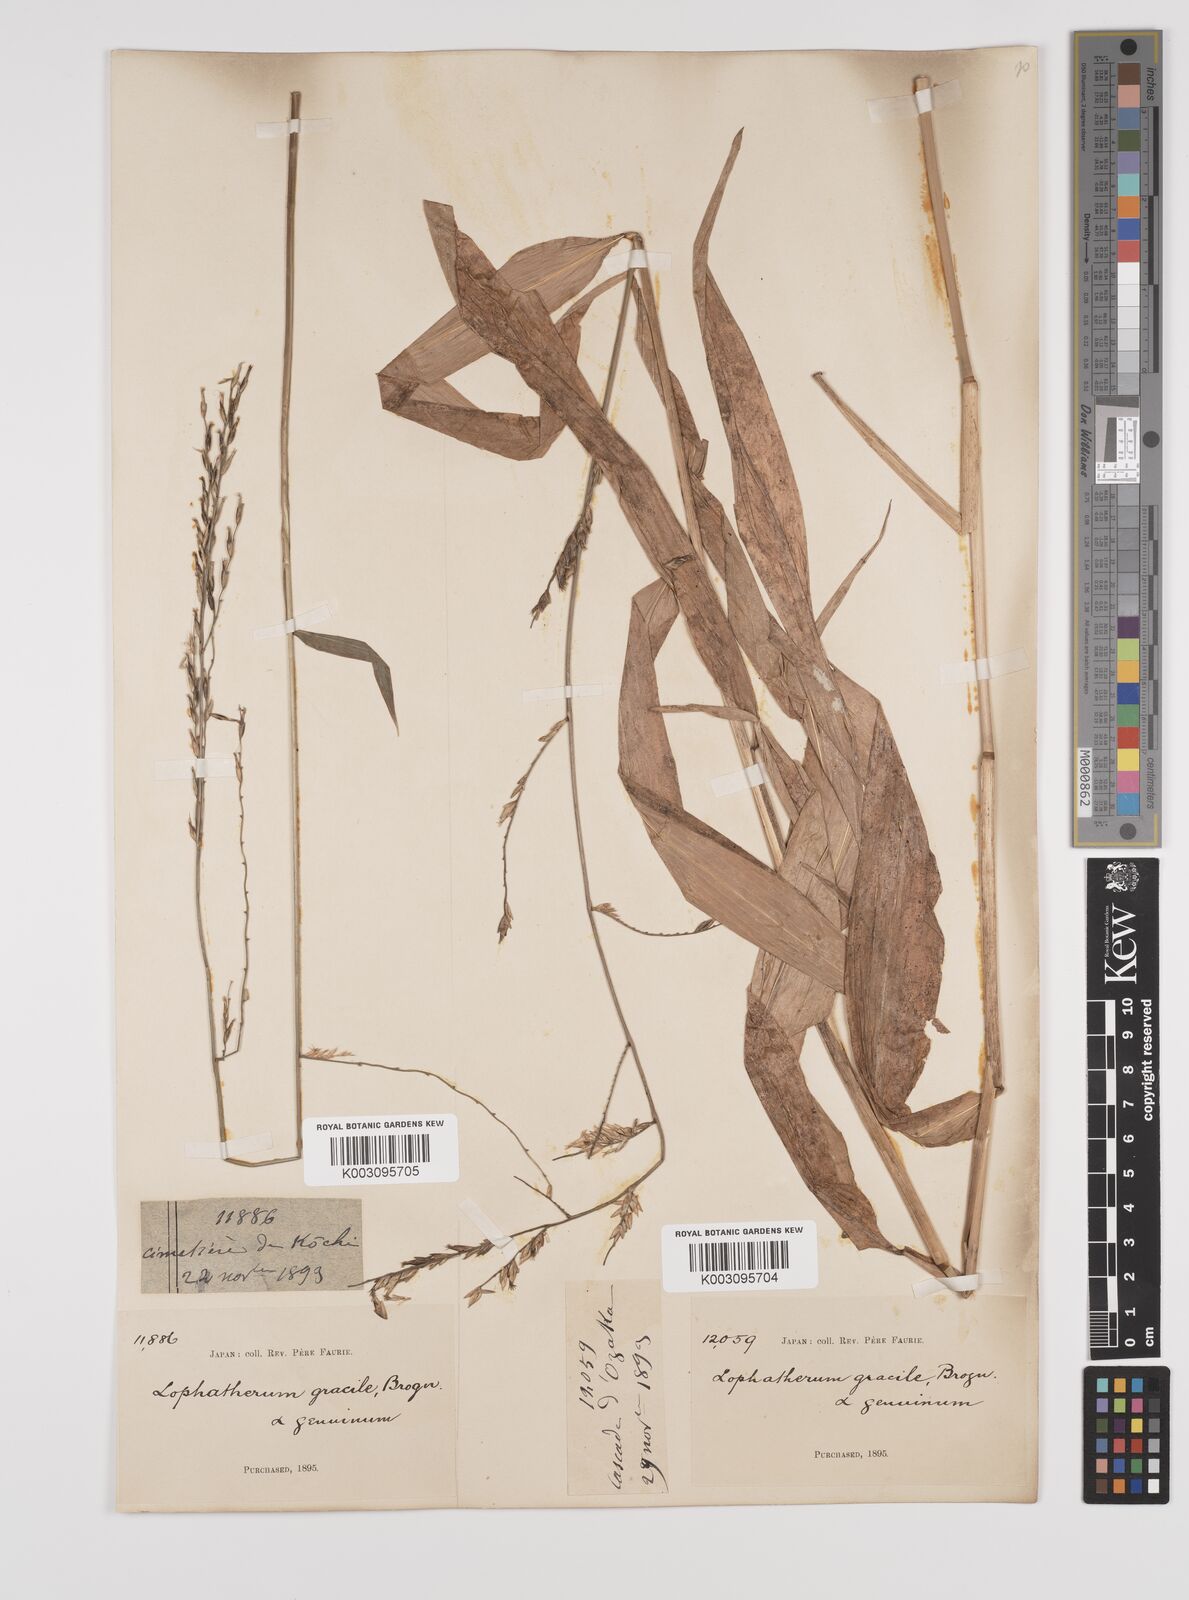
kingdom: Plantae
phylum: Tracheophyta
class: Liliopsida
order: Poales
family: Poaceae
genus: Lophatherum
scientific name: Lophatherum gracile
